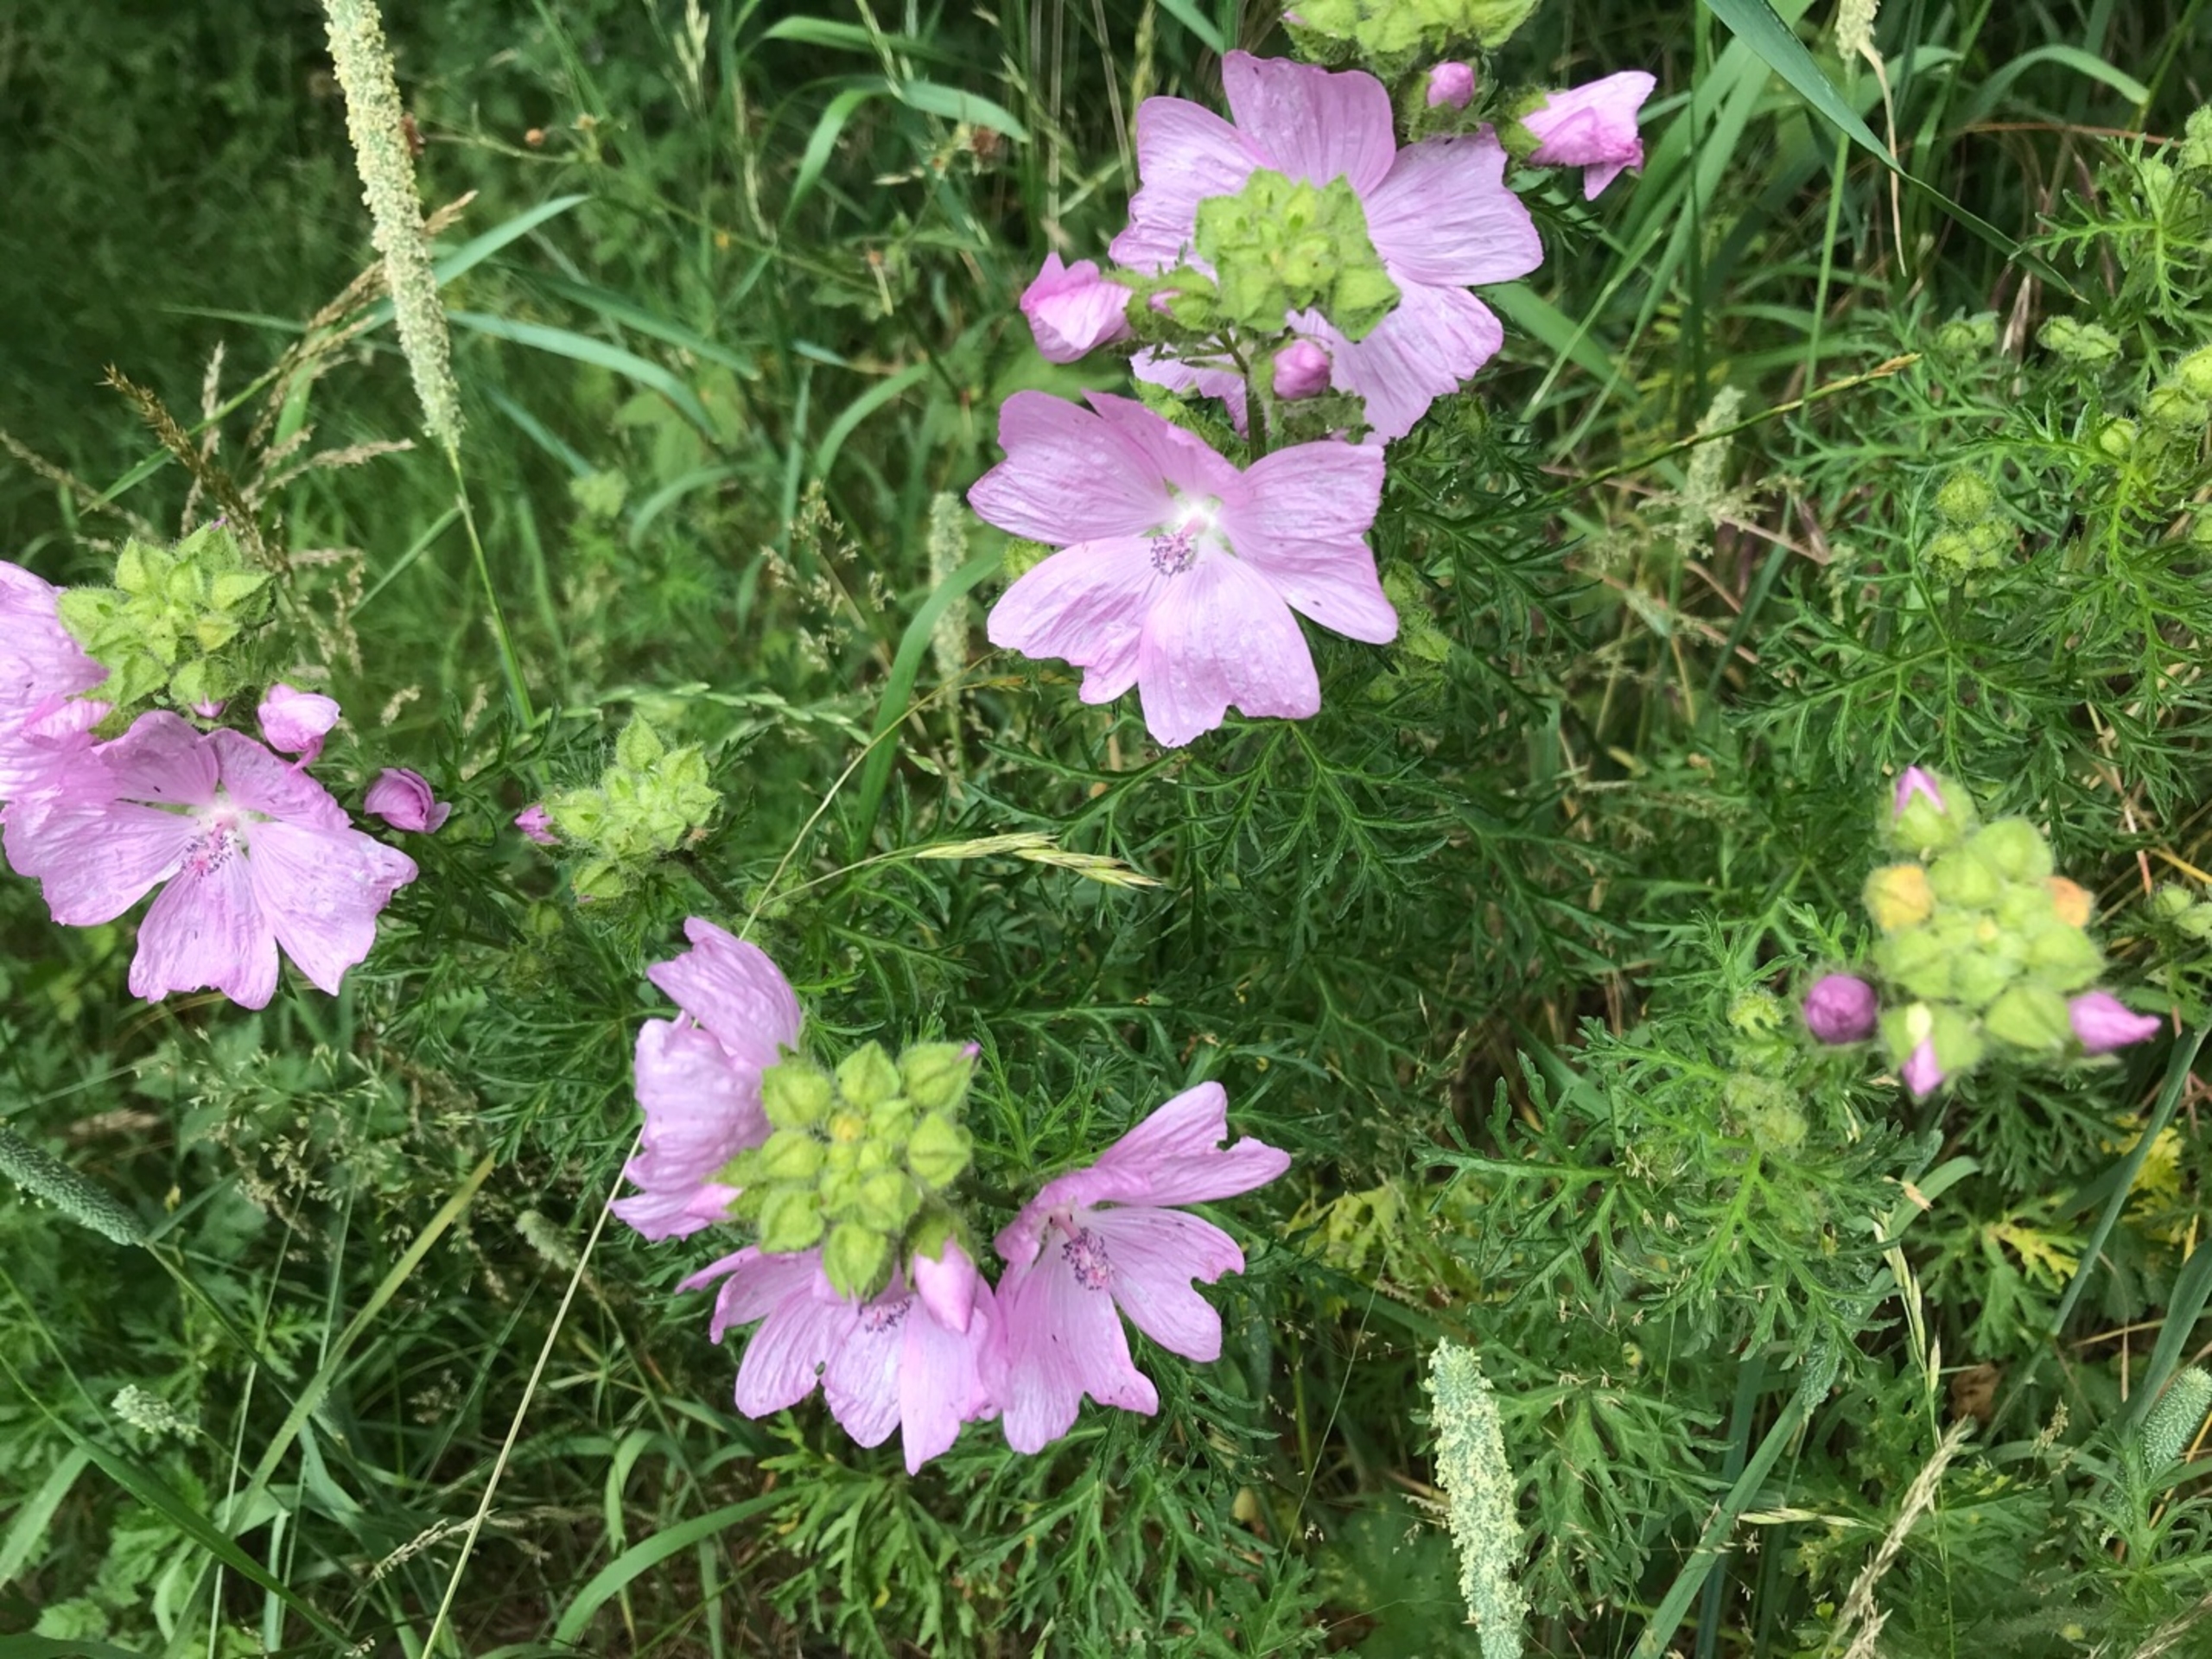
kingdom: Plantae
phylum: Tracheophyta
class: Magnoliopsida
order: Malvales
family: Malvaceae
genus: Malva
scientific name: Malva moschata
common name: Moskus-katost
